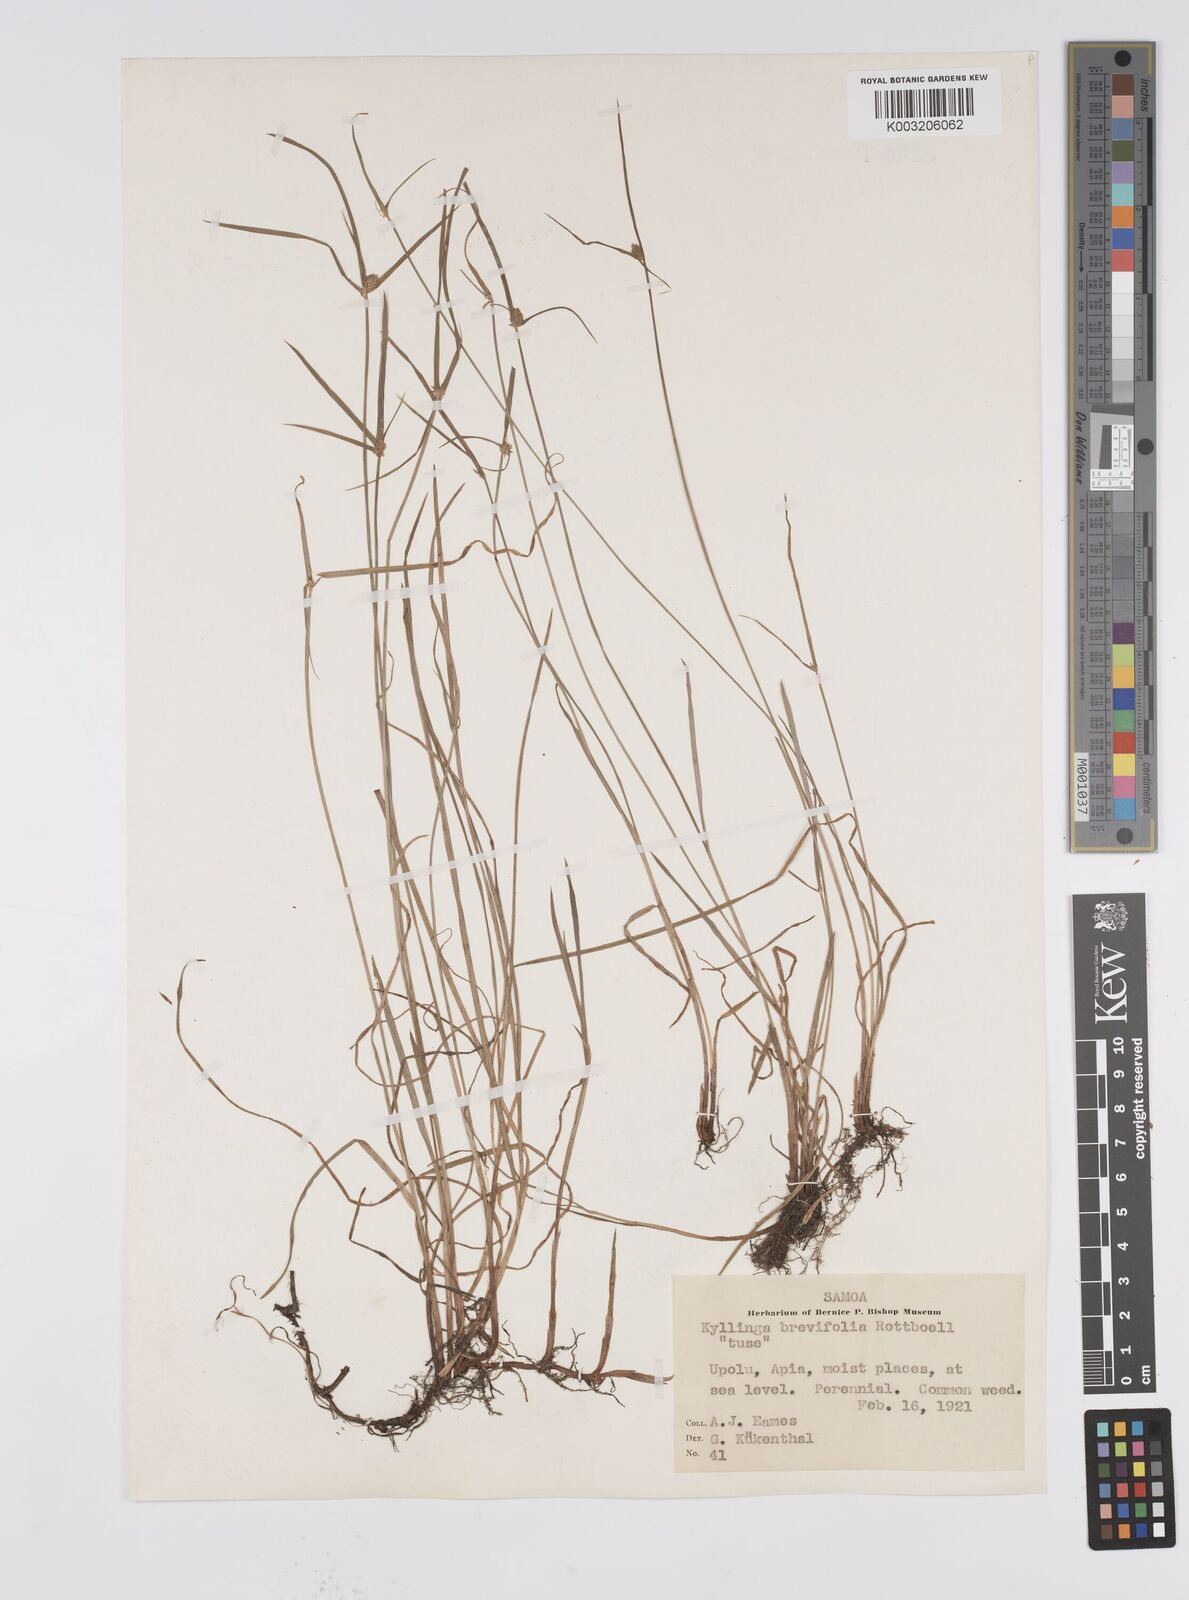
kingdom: Plantae
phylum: Tracheophyta
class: Liliopsida
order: Poales
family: Cyperaceae
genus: Cyperus
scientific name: Cyperus brevifolius
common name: Globe kyllinga
